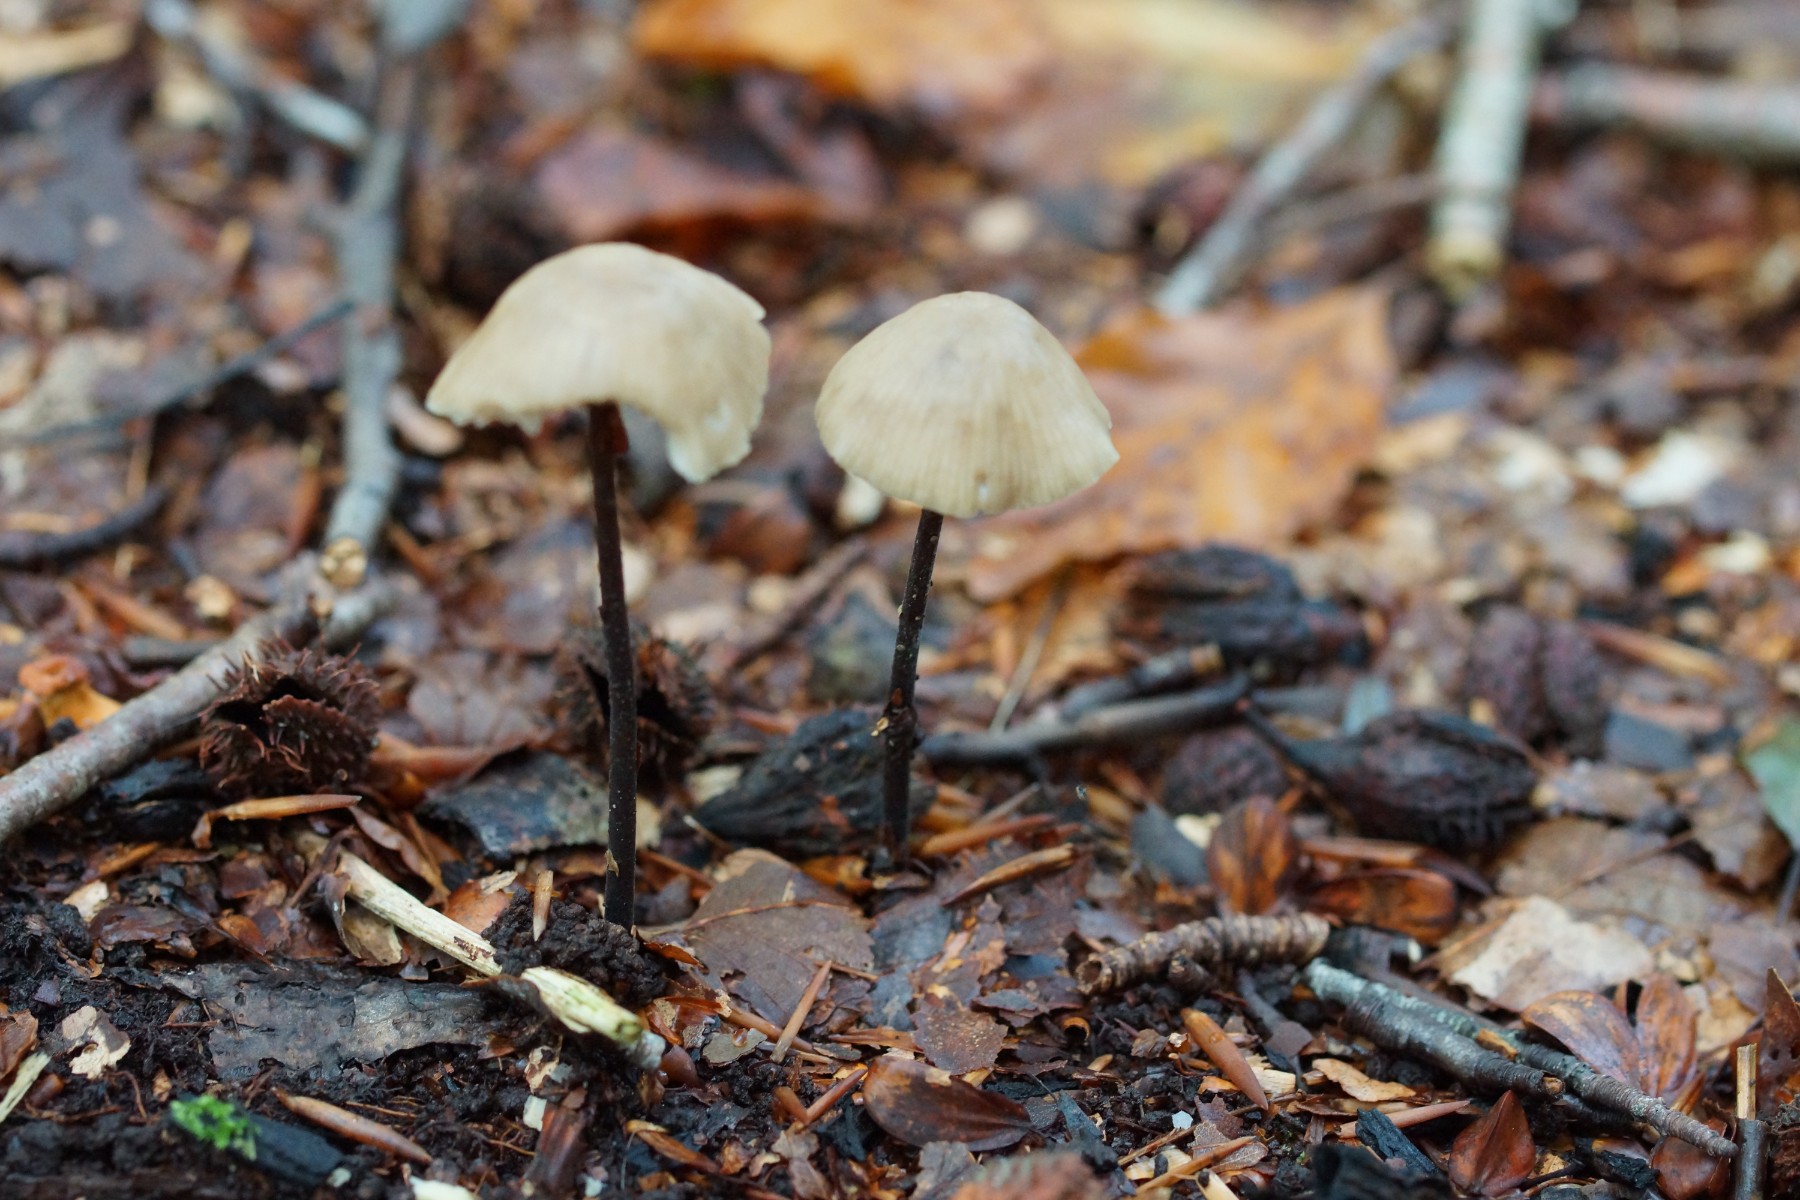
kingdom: Fungi
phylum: Basidiomycota
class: Agaricomycetes
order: Agaricales
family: Omphalotaceae
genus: Mycetinis
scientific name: Mycetinis alliaceus
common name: stor løghat
